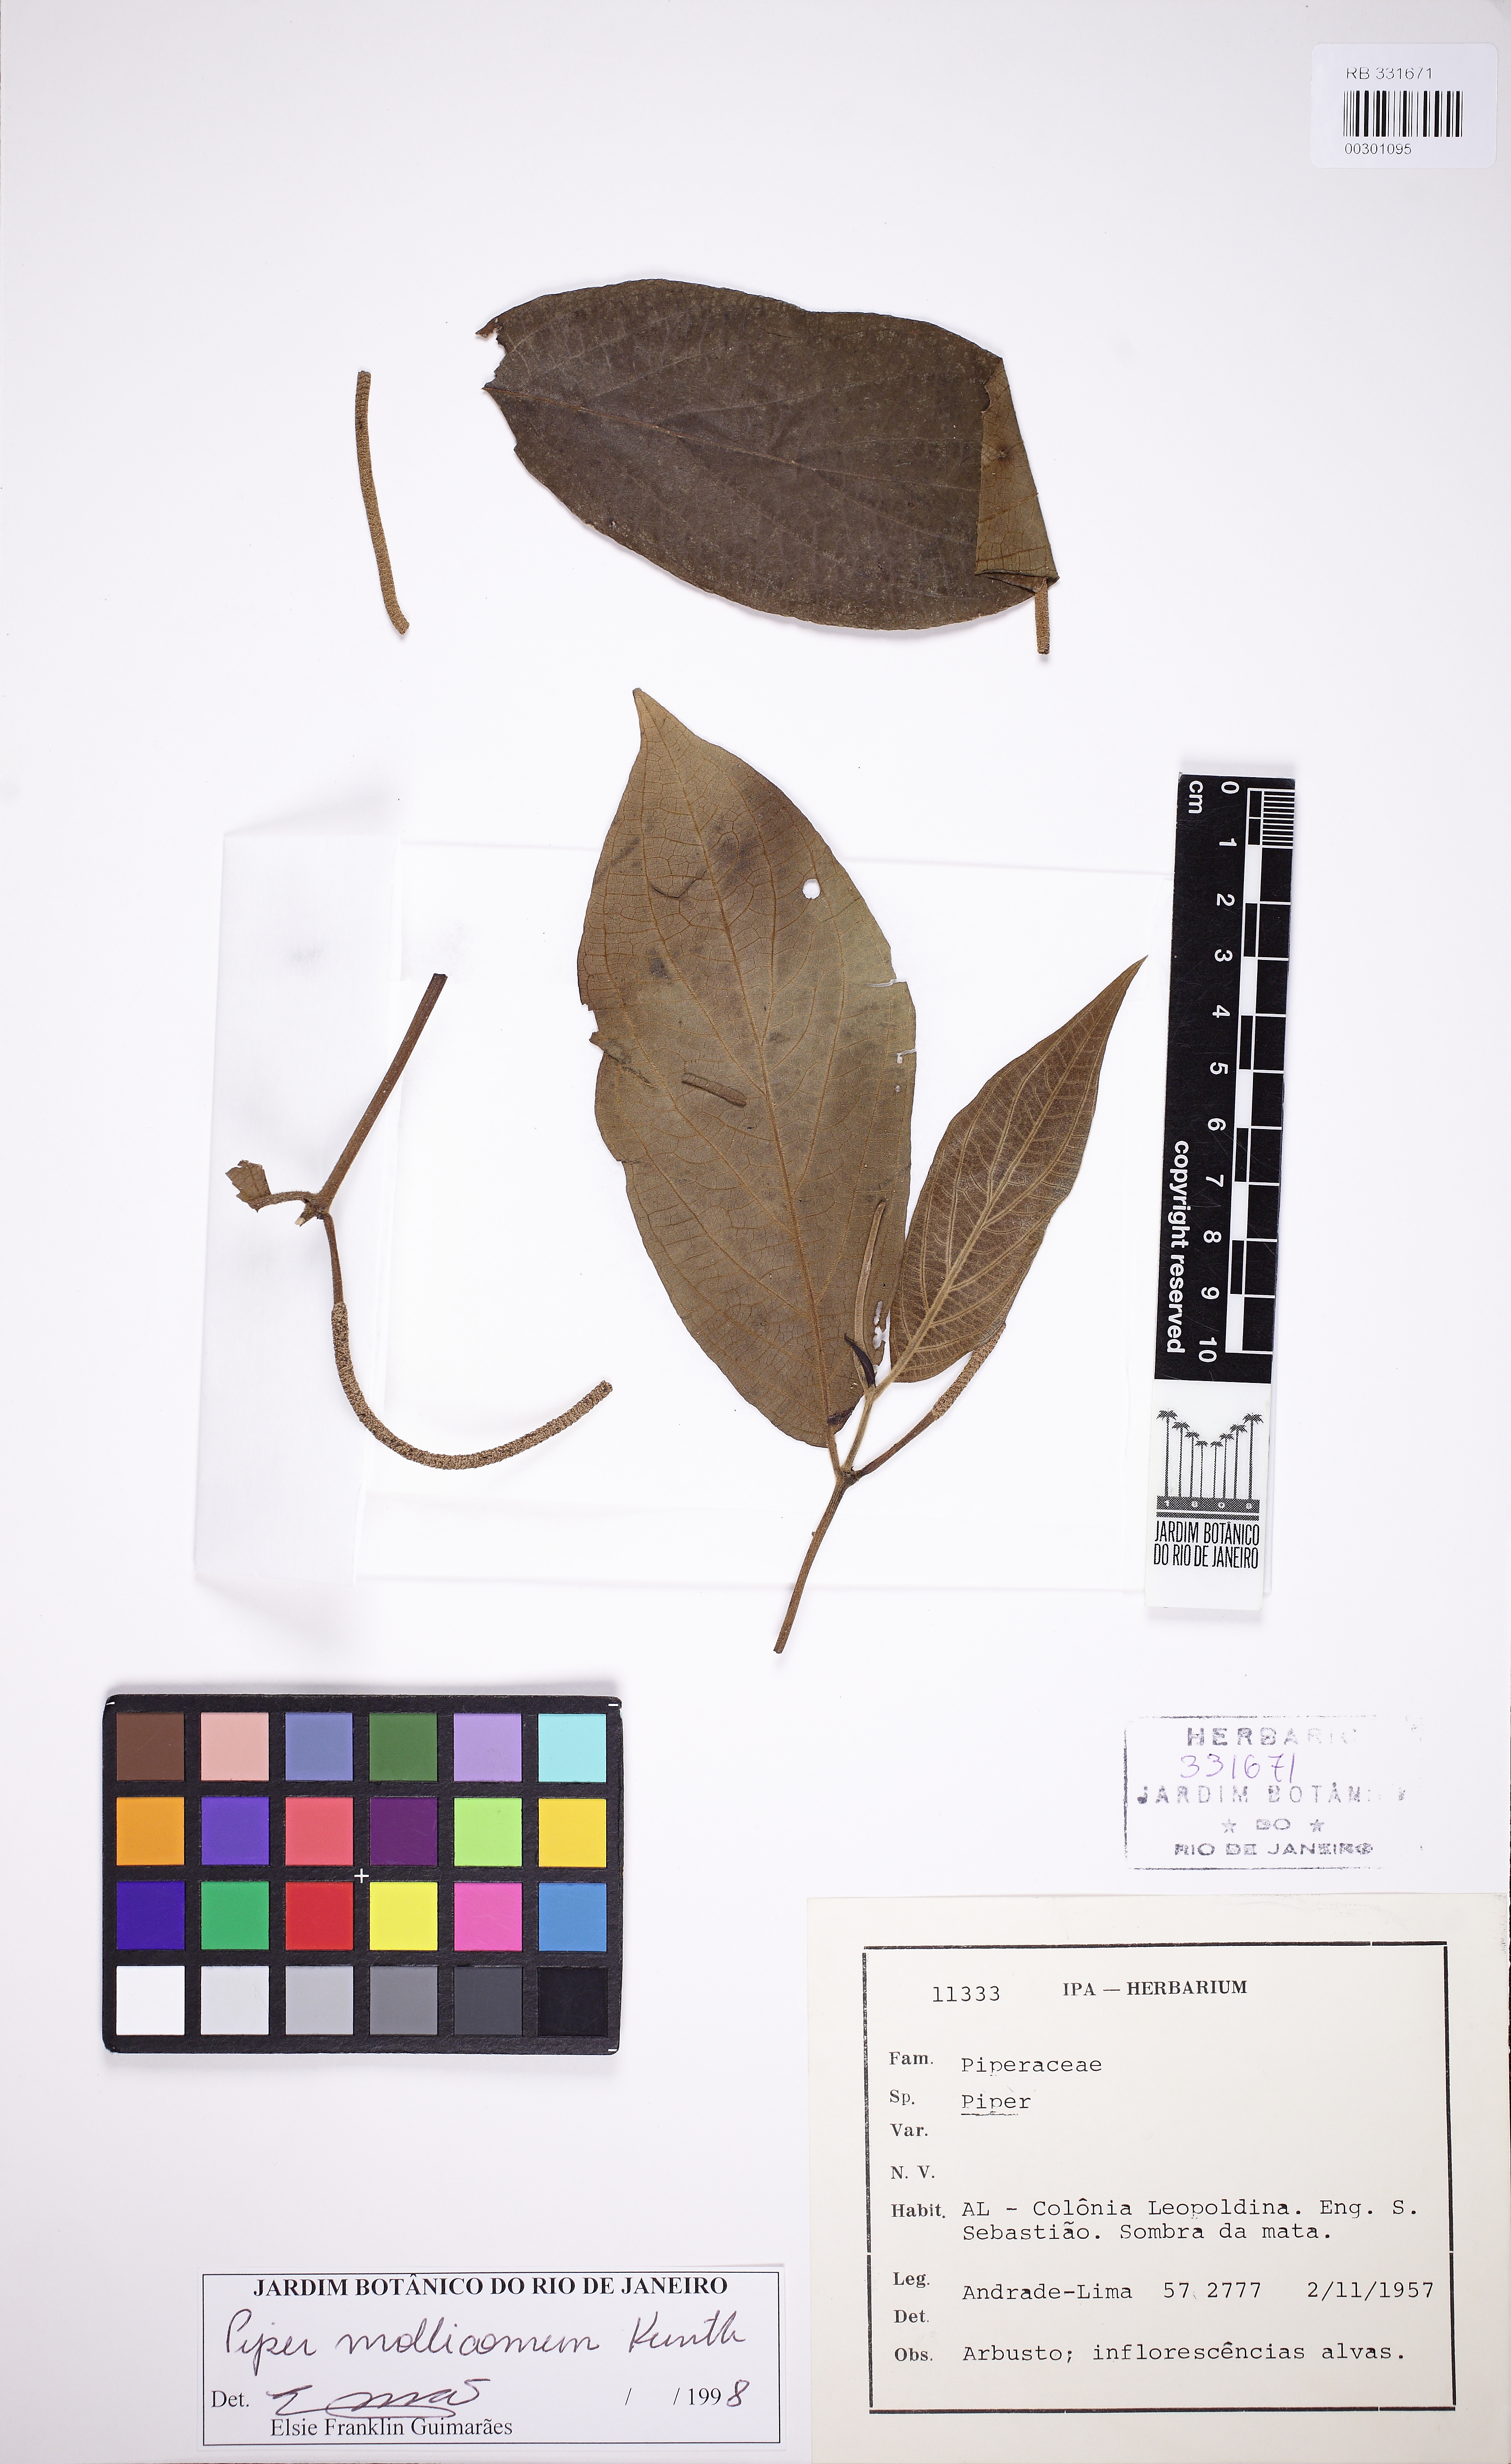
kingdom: Plantae
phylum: Tracheophyta
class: Magnoliopsida
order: Piperales
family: Piperaceae
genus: Piper
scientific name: Piper mollicomum
